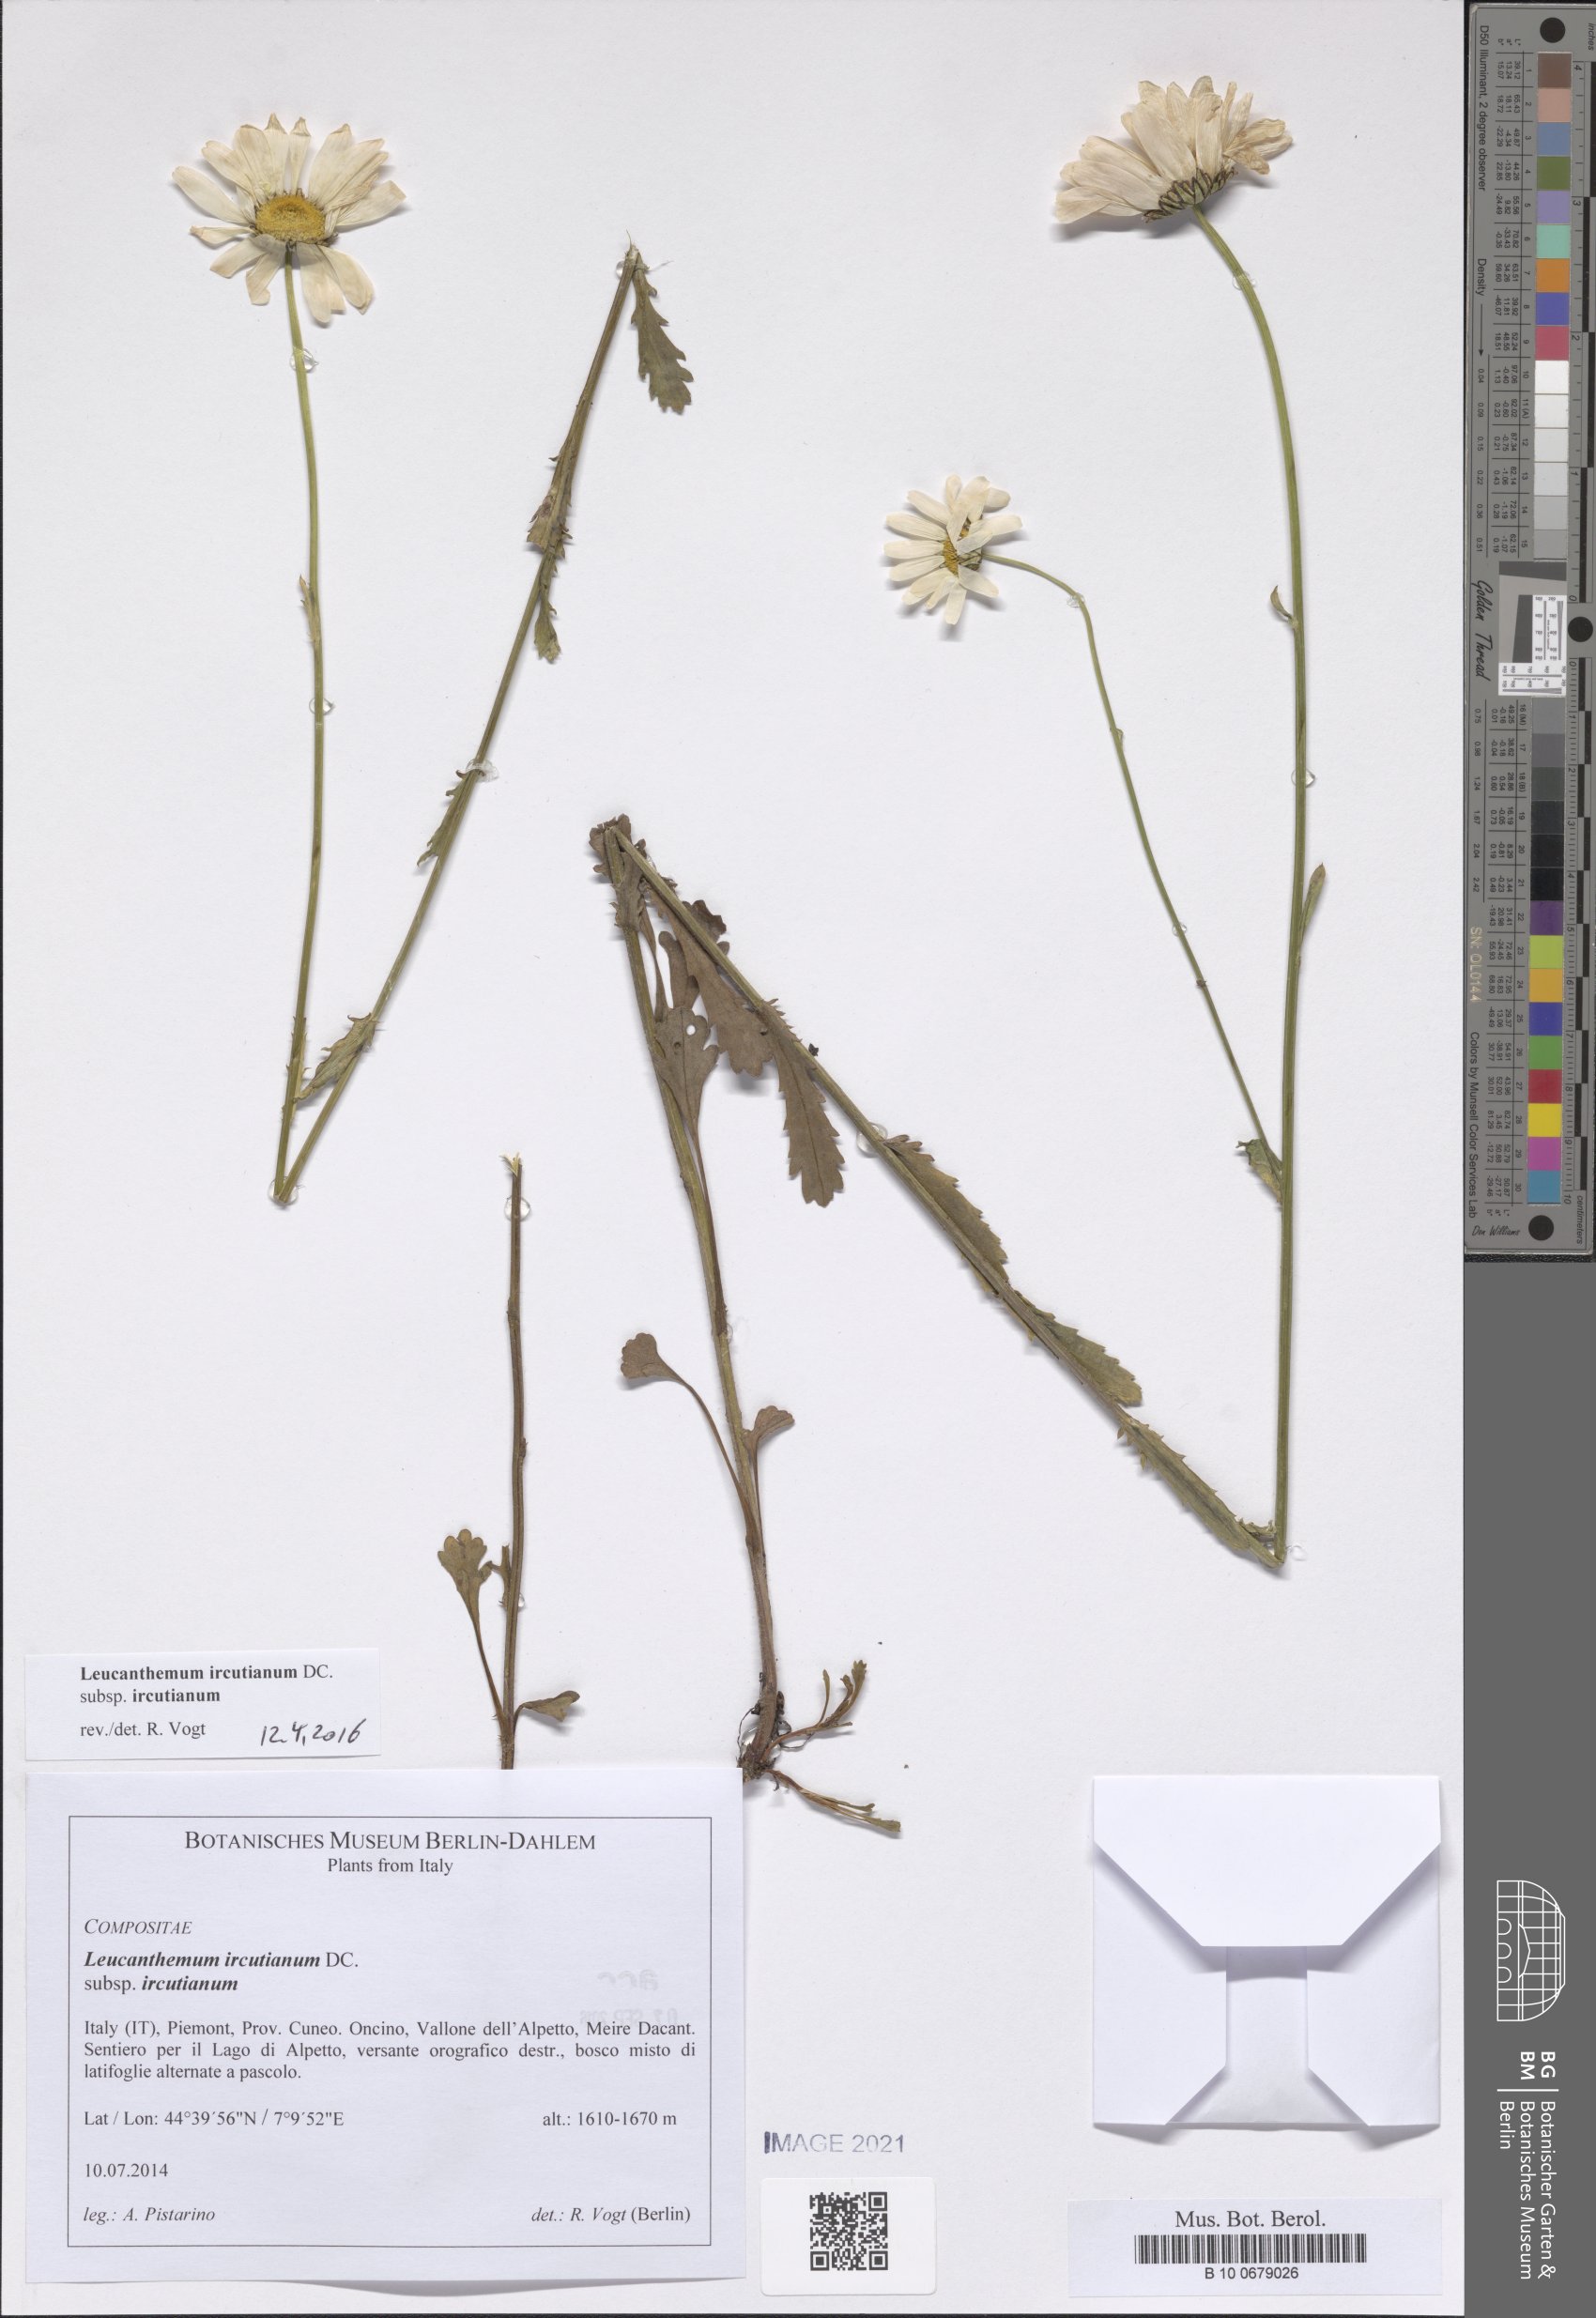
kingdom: Plantae
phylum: Tracheophyta
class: Magnoliopsida
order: Asterales
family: Asteraceae
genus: Leucanthemum
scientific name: Leucanthemum ircutianum
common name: Daisy
